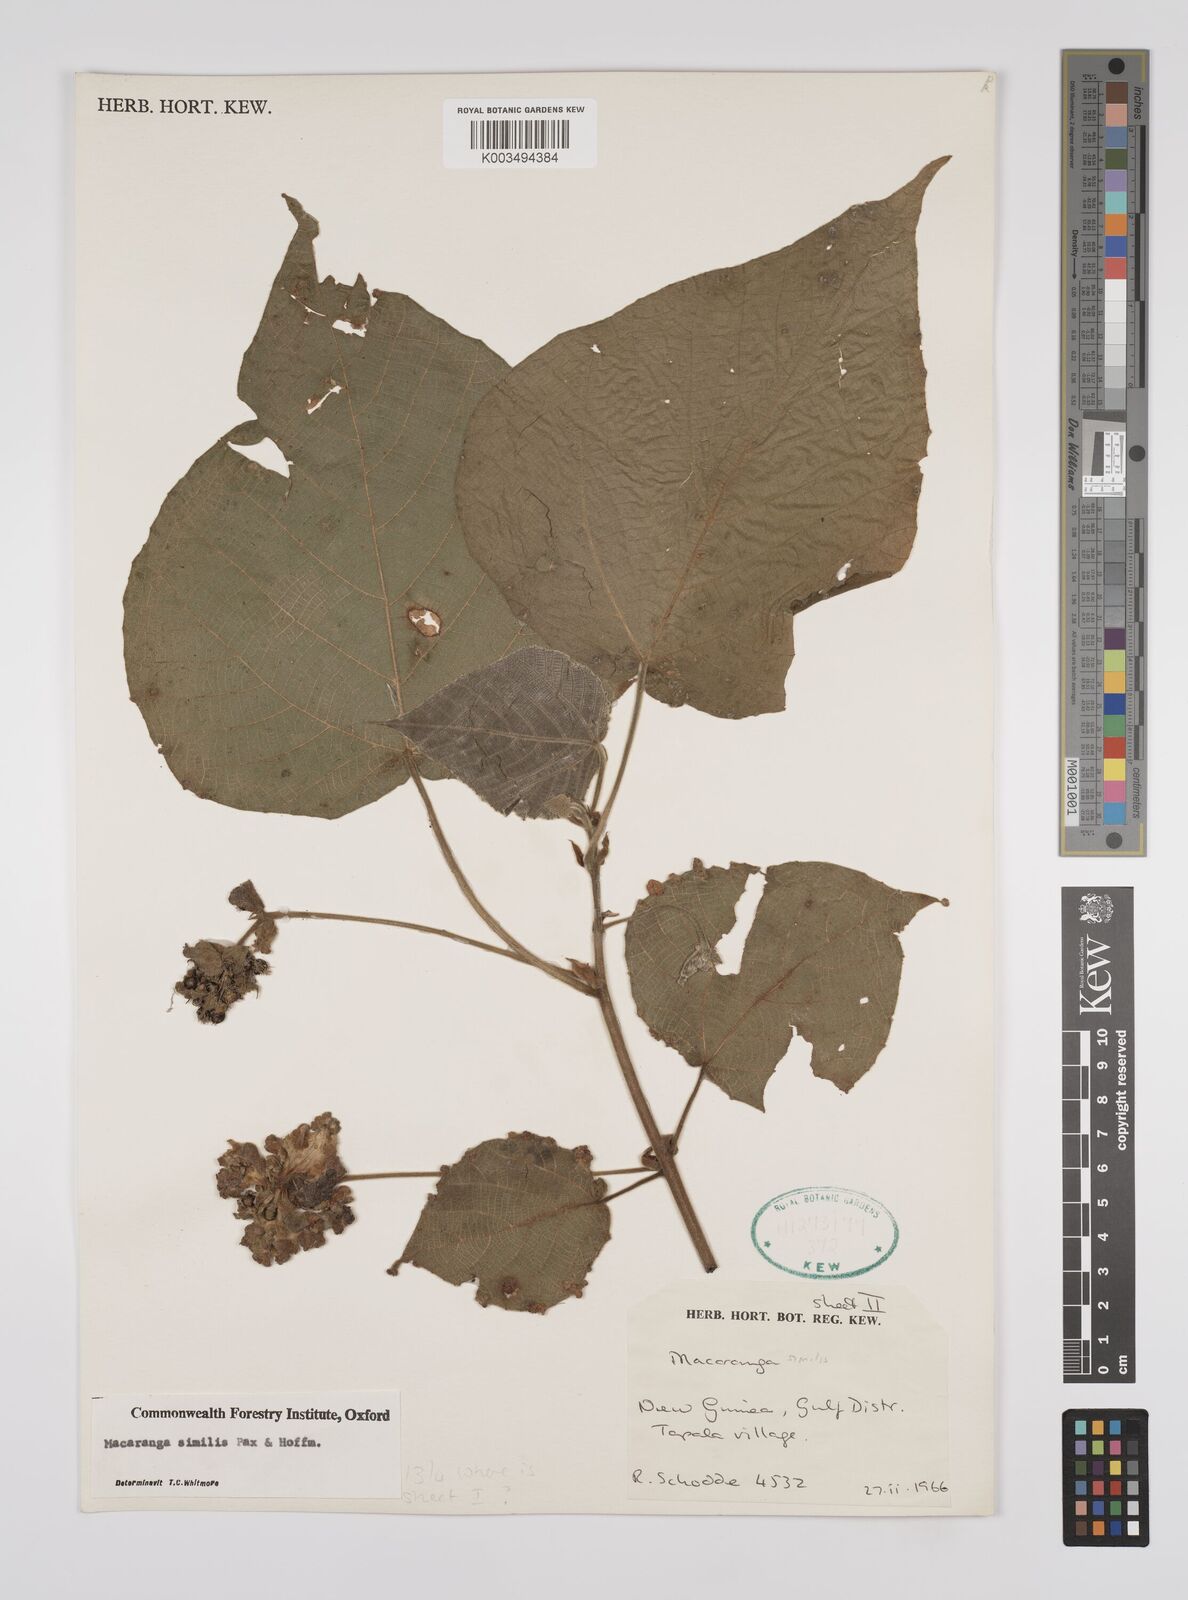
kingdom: Plantae
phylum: Tracheophyta
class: Magnoliopsida
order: Malpighiales
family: Euphorbiaceae
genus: Macaranga
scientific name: Macaranga similis
